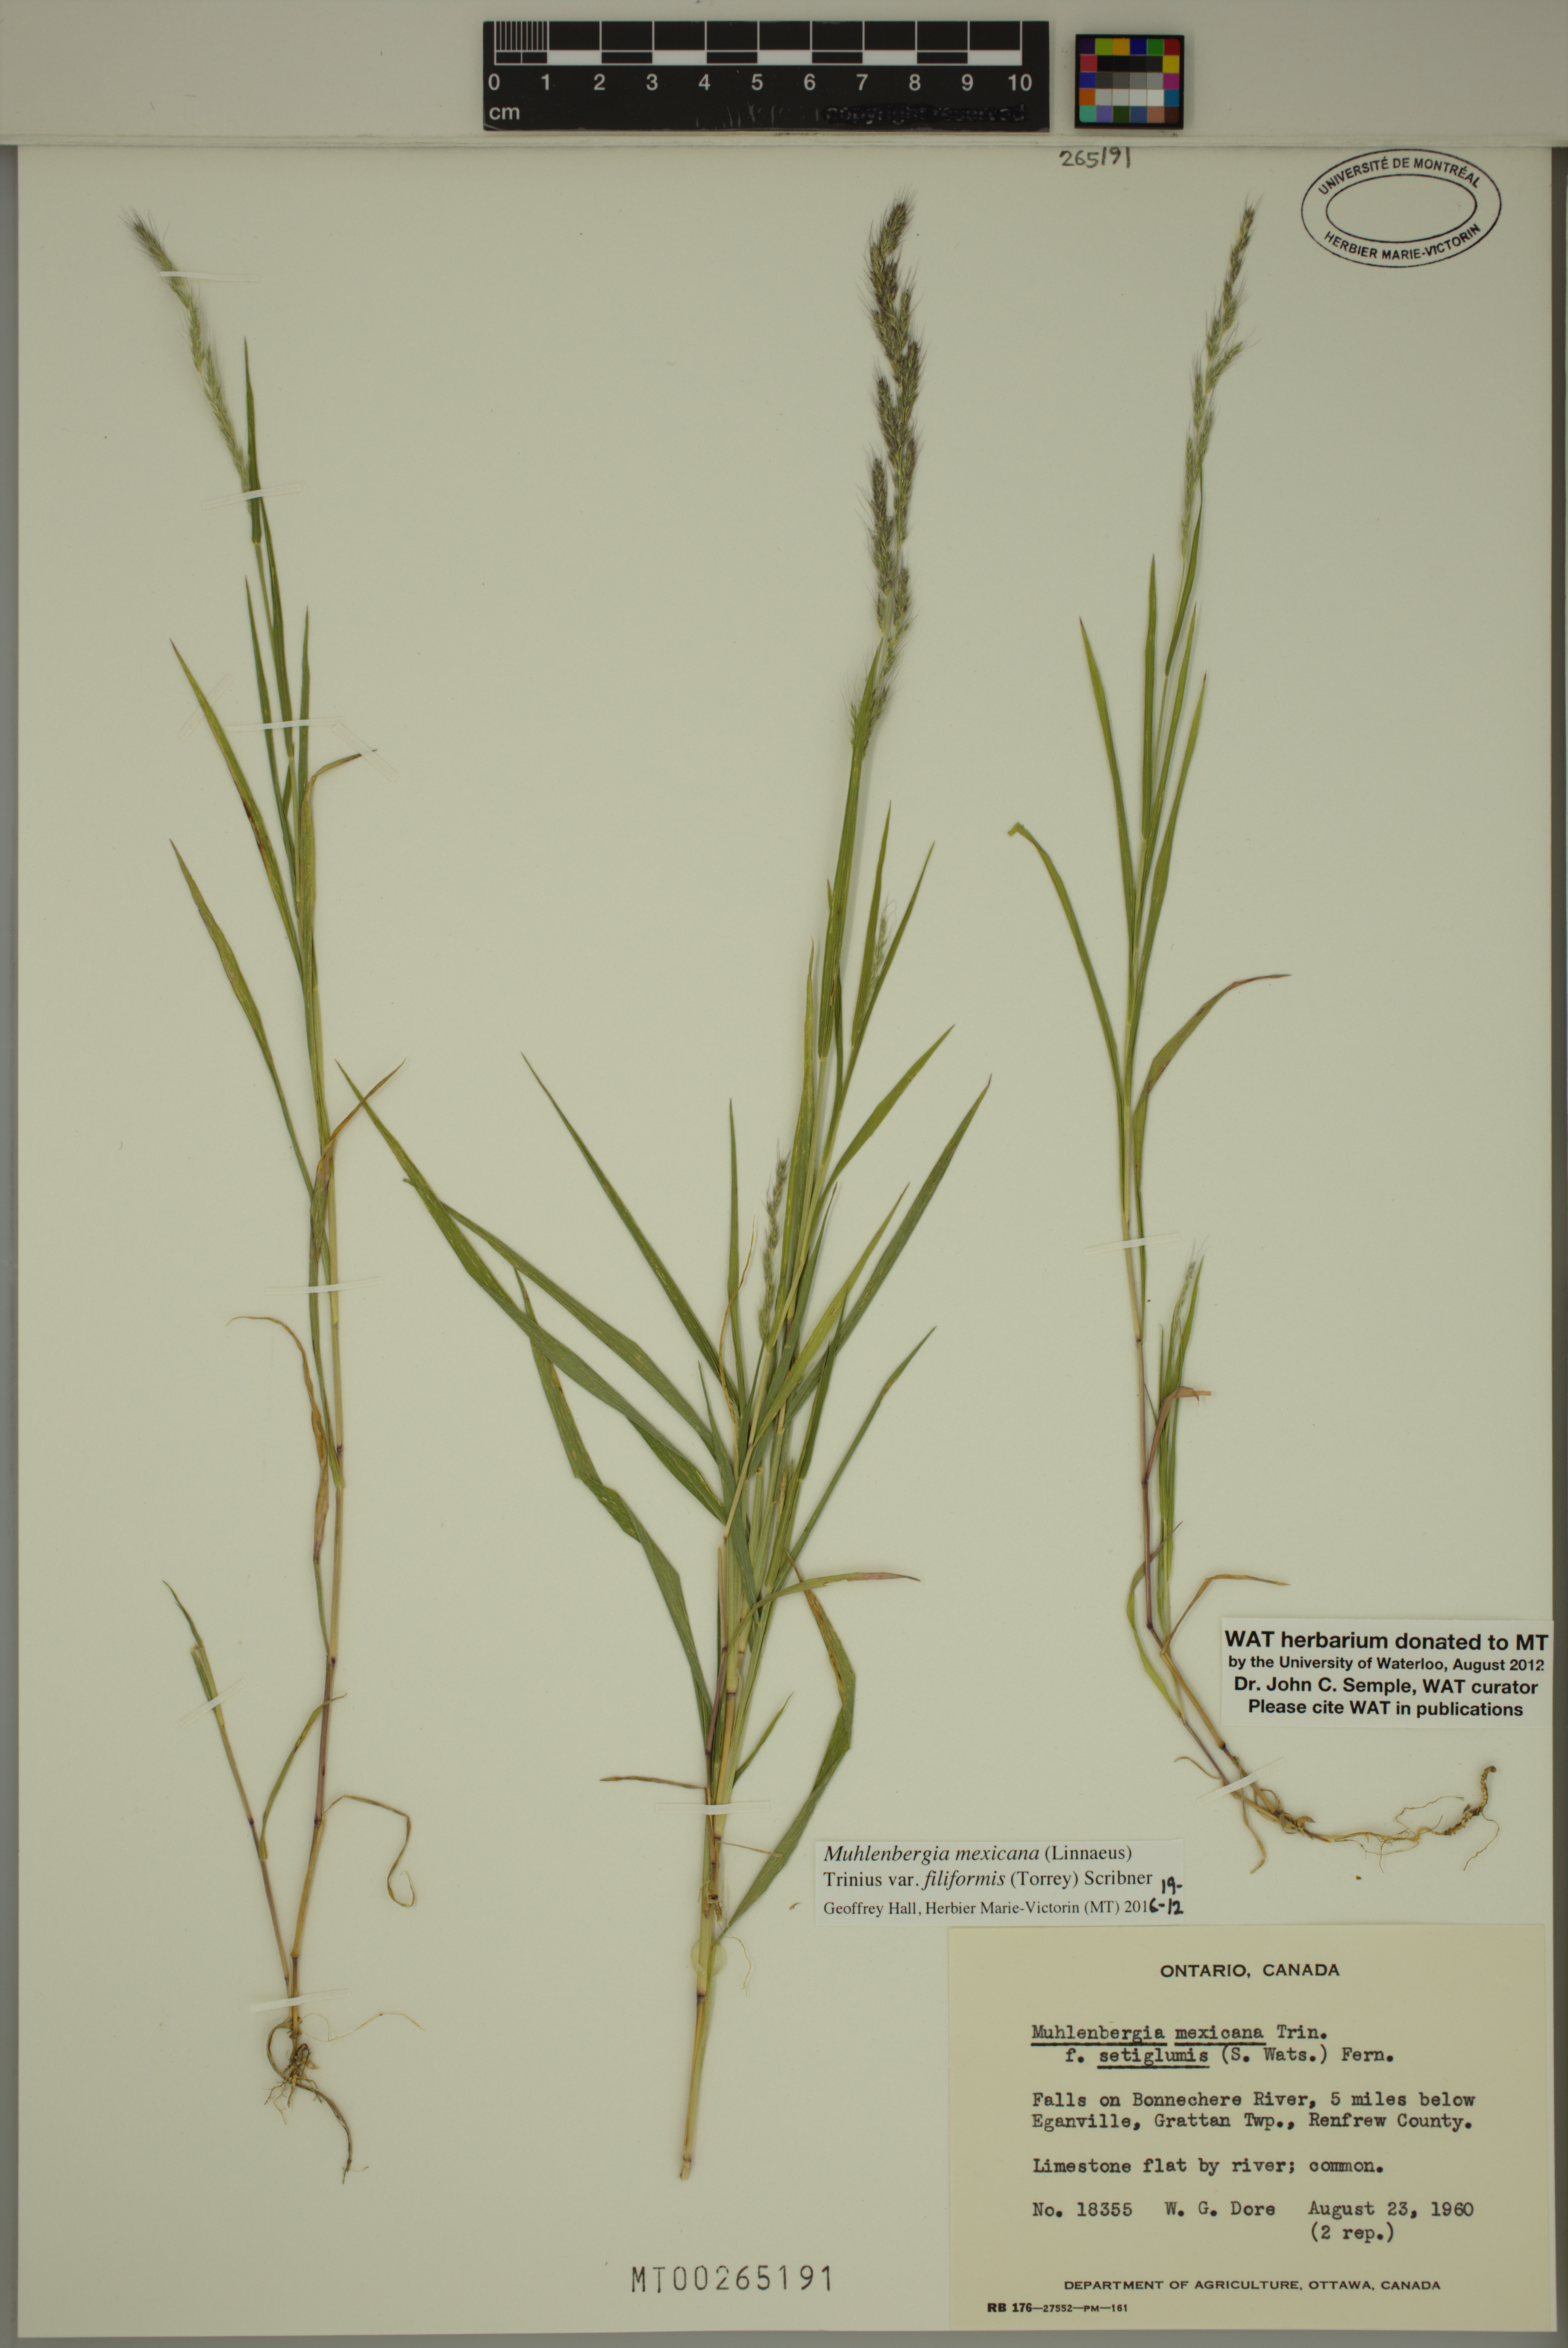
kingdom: Plantae
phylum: Tracheophyta
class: Liliopsida
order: Poales
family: Poaceae
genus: Muhlenbergia
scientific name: Muhlenbergia mexicana
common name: Mexican muhly
